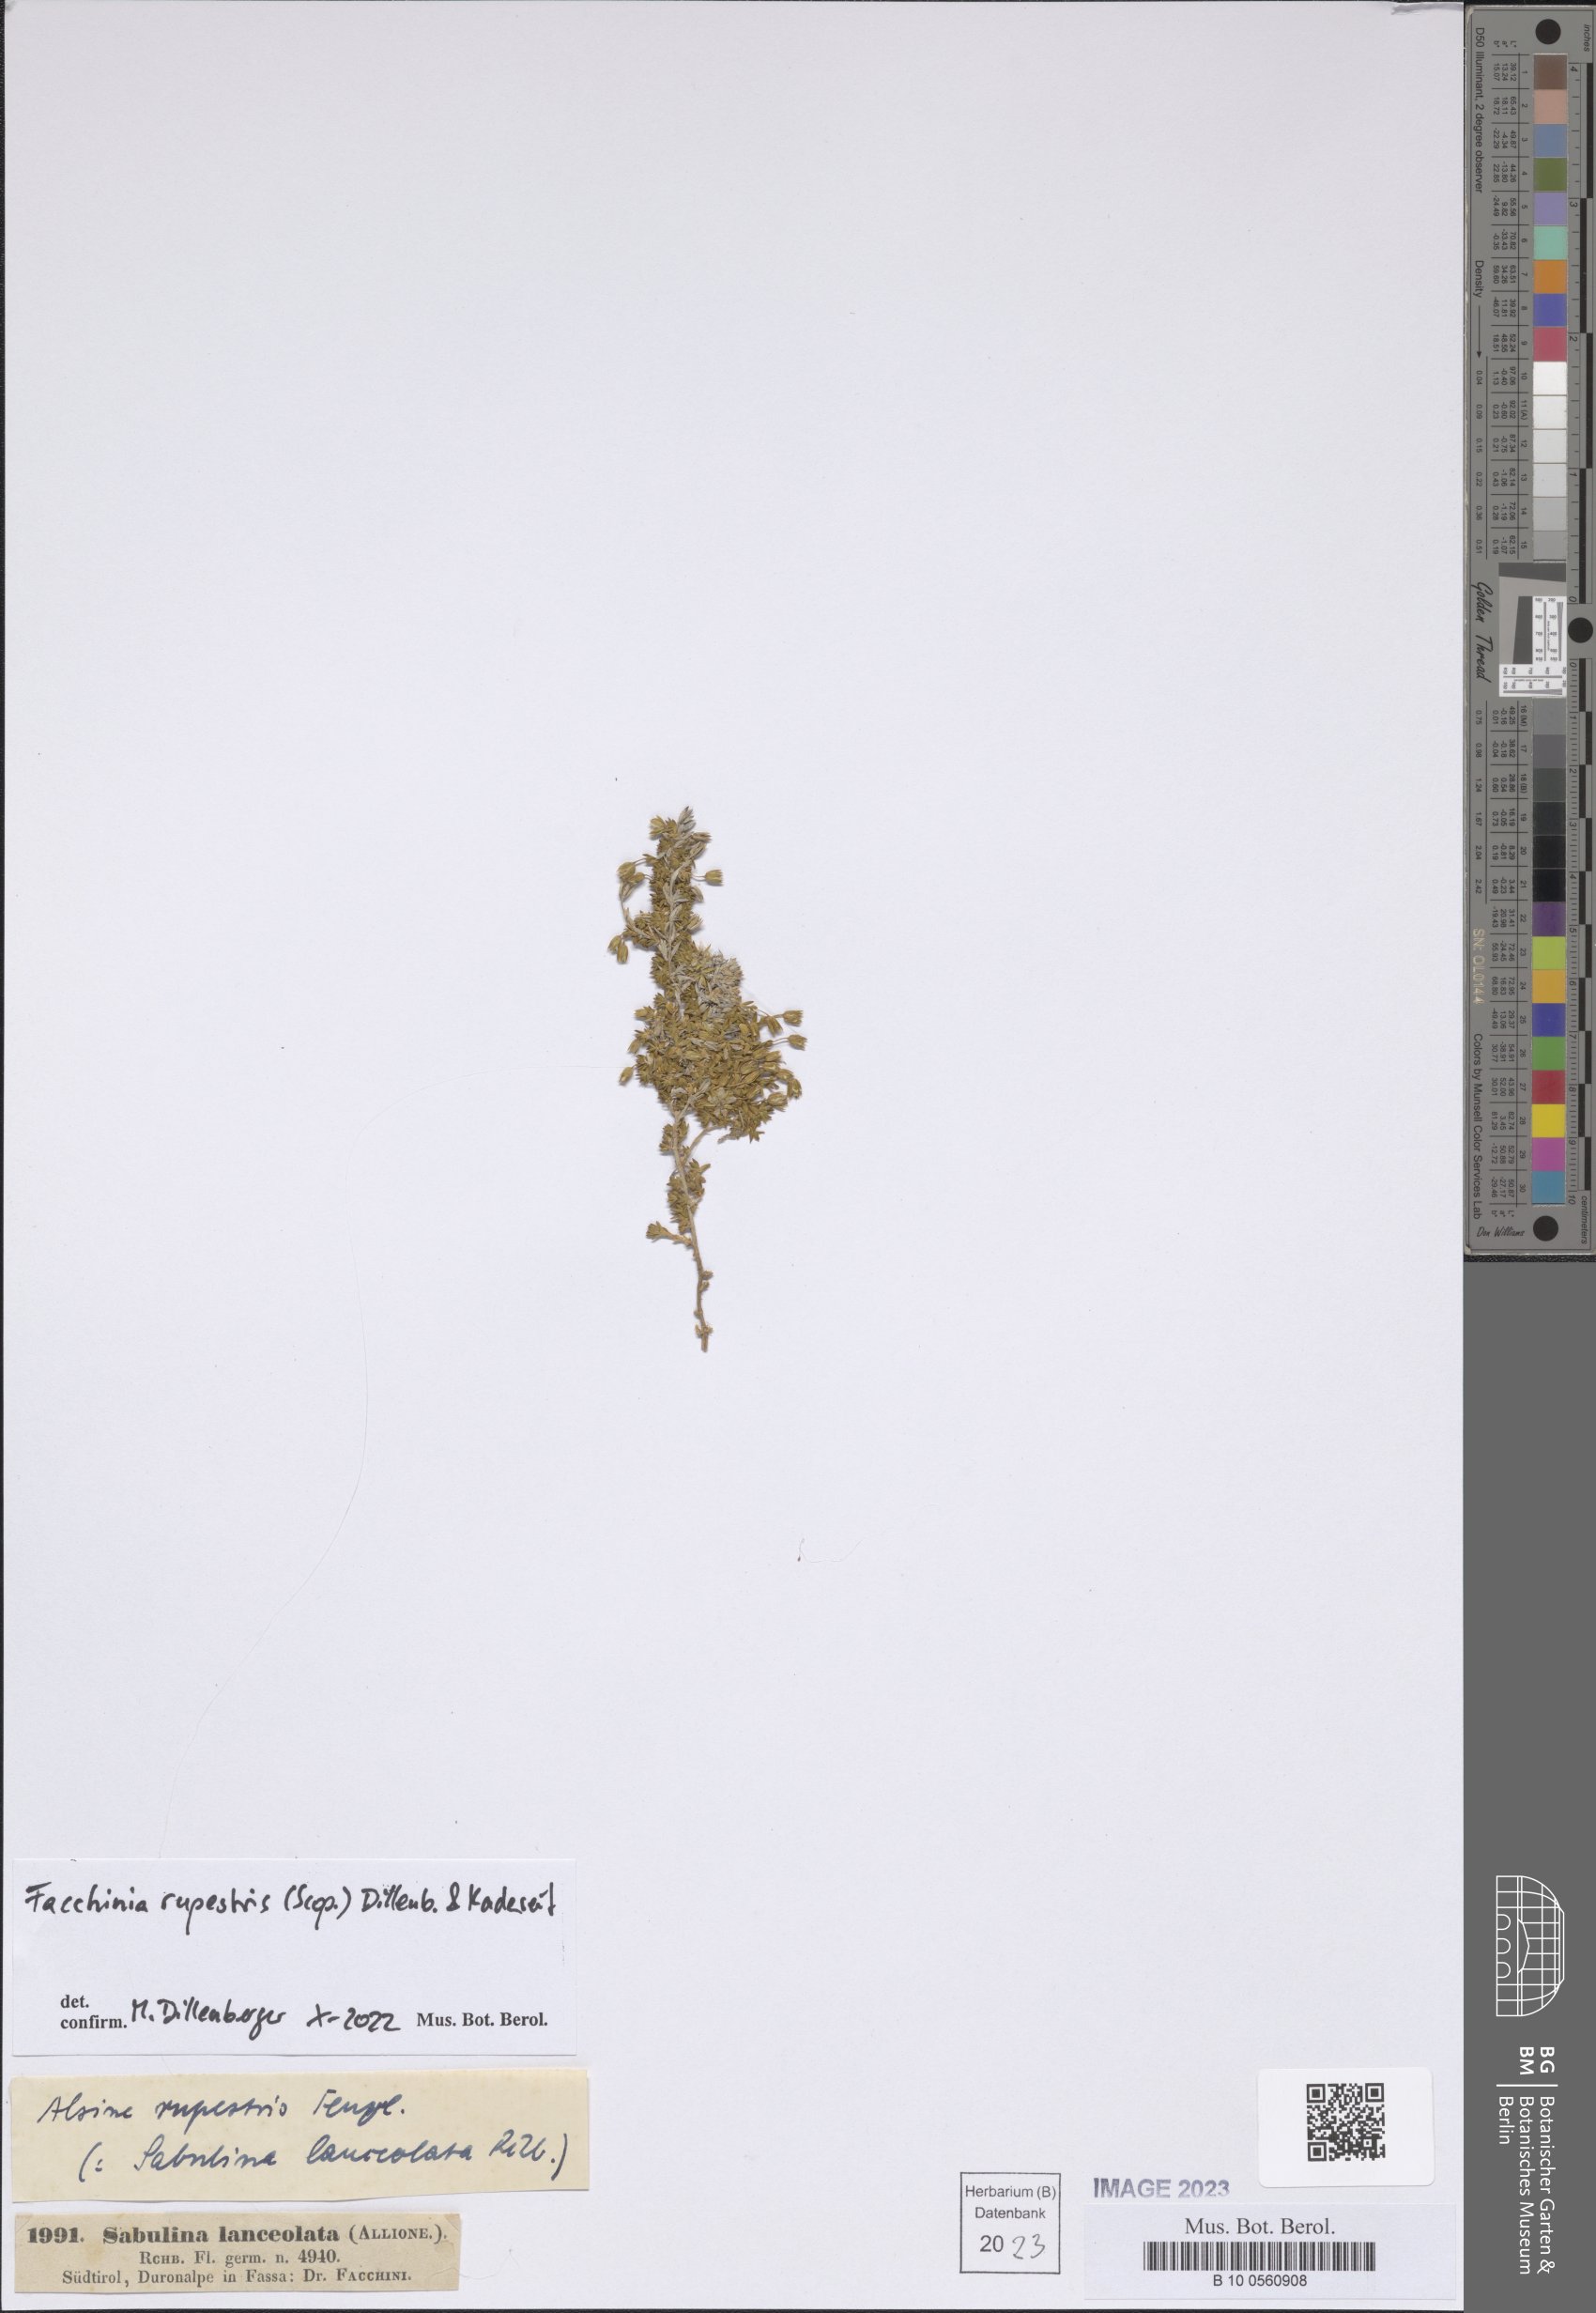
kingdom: Plantae
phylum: Tracheophyta
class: Magnoliopsida
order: Caryophyllales
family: Caryophyllaceae
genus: Facchinia
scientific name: Facchinia rupestris
